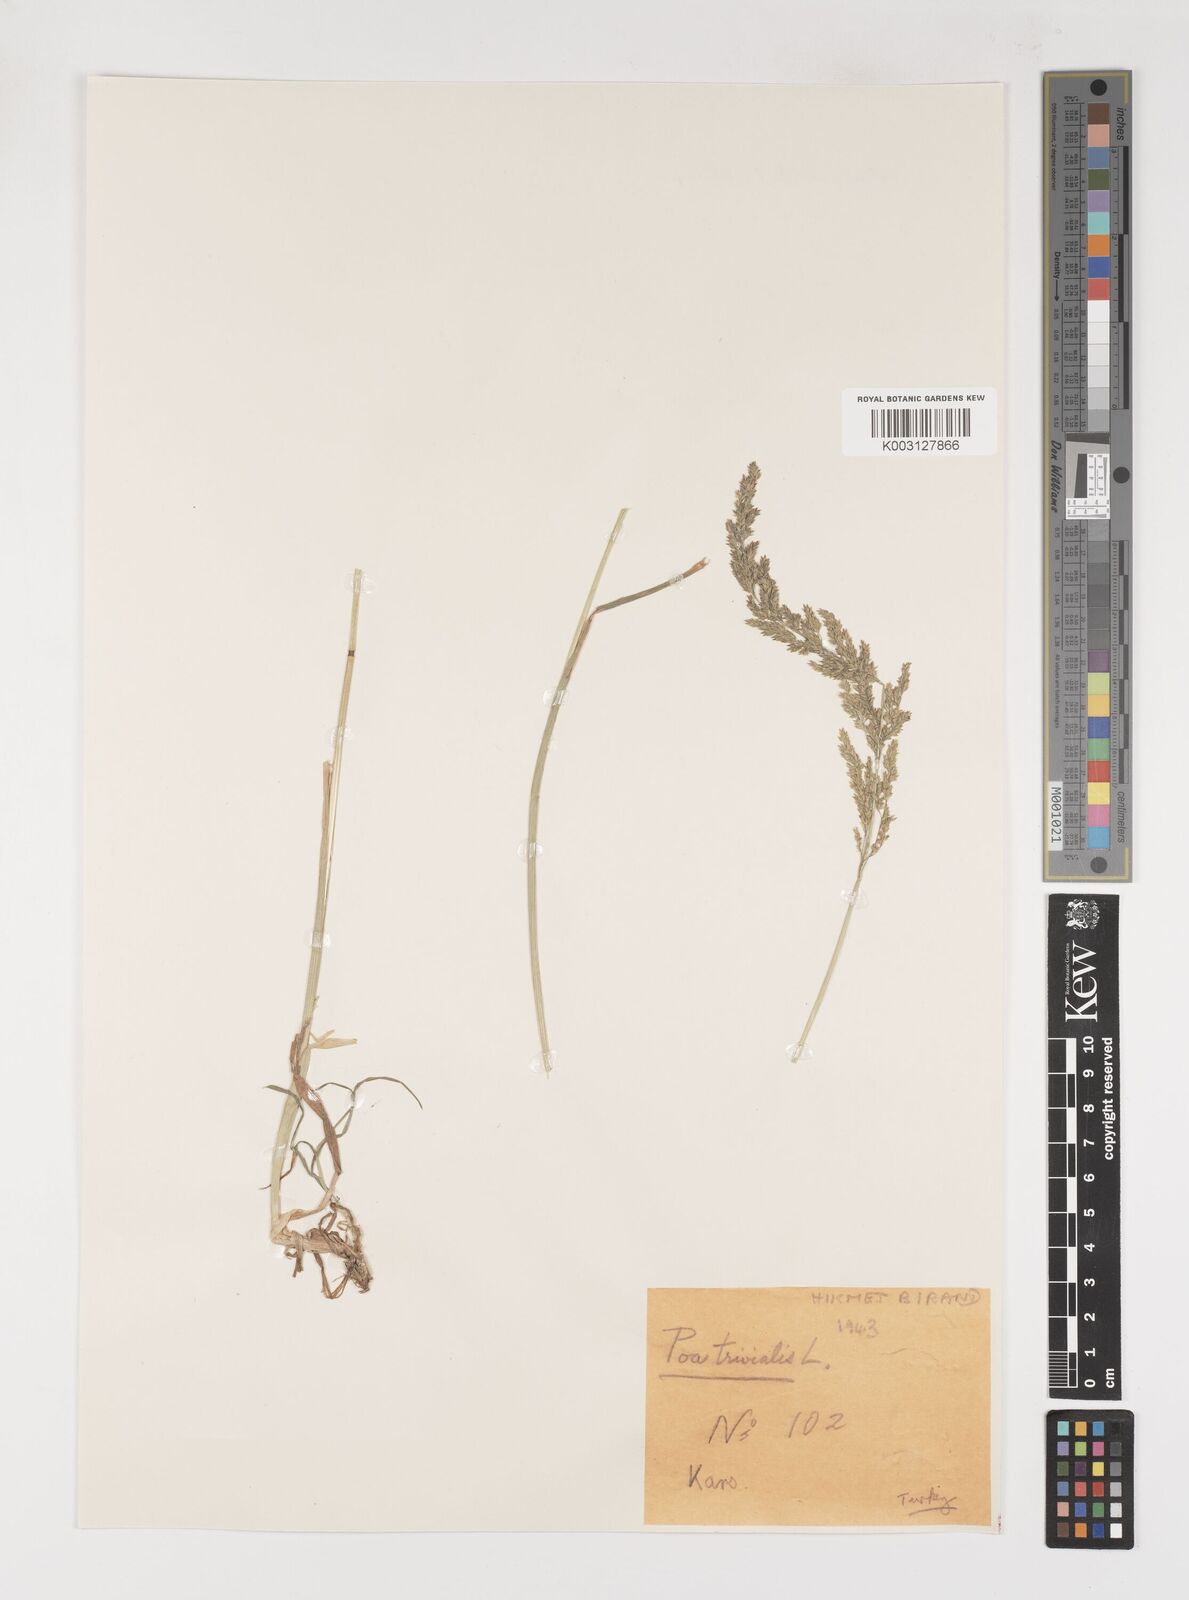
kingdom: Plantae
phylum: Tracheophyta
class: Liliopsida
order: Poales
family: Poaceae
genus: Poa
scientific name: Poa trivialis
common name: Rough bluegrass
